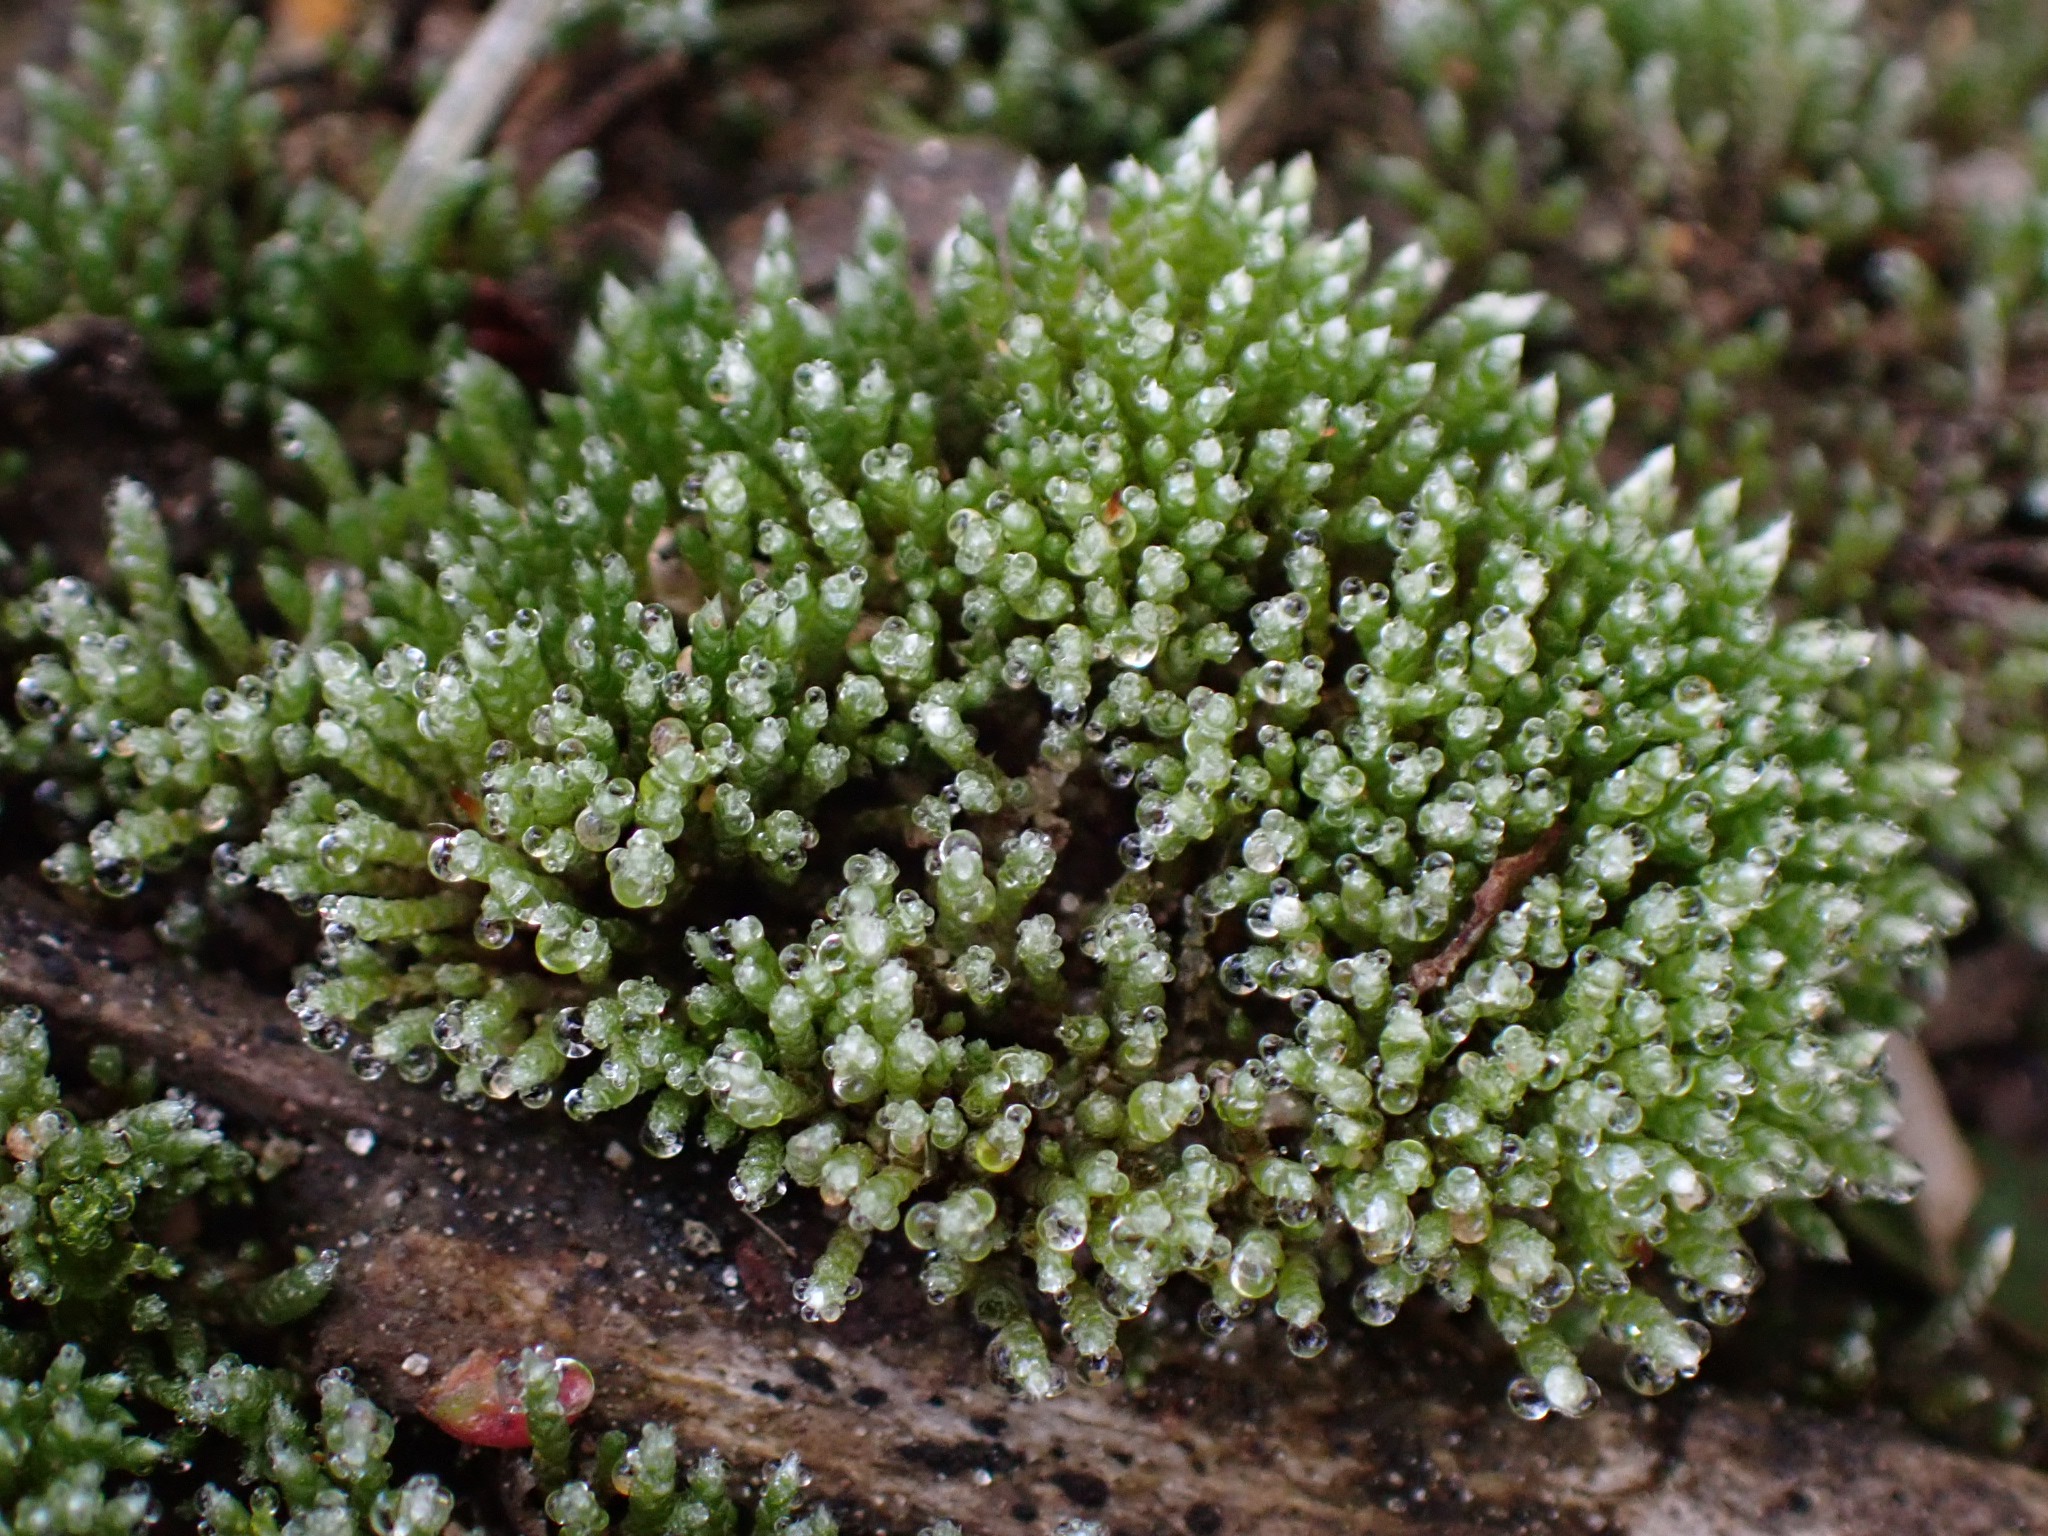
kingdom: Plantae
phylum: Bryophyta
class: Bryopsida
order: Bryales
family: Bryaceae
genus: Bryum
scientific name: Bryum argenteum
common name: Sølv-bryum
